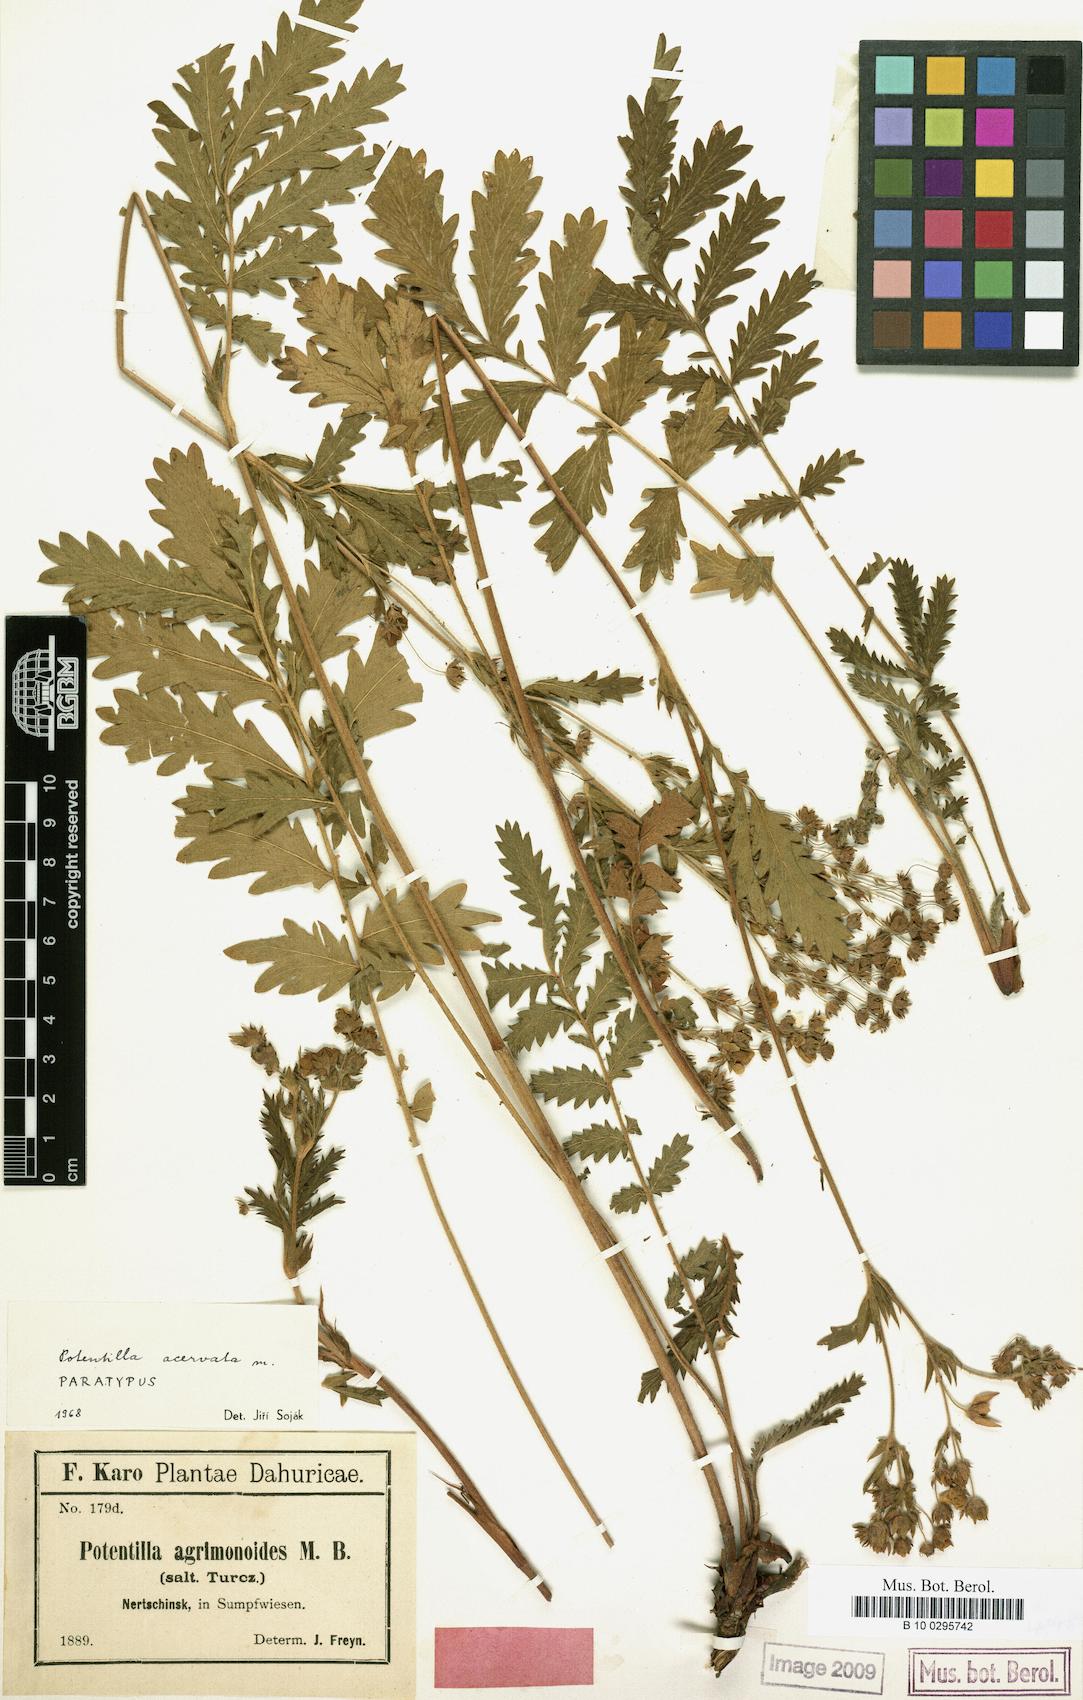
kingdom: Plantae
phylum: Tracheophyta
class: Magnoliopsida
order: Rosales
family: Rosaceae
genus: Potentilla
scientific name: Potentilla tanacetifolia
